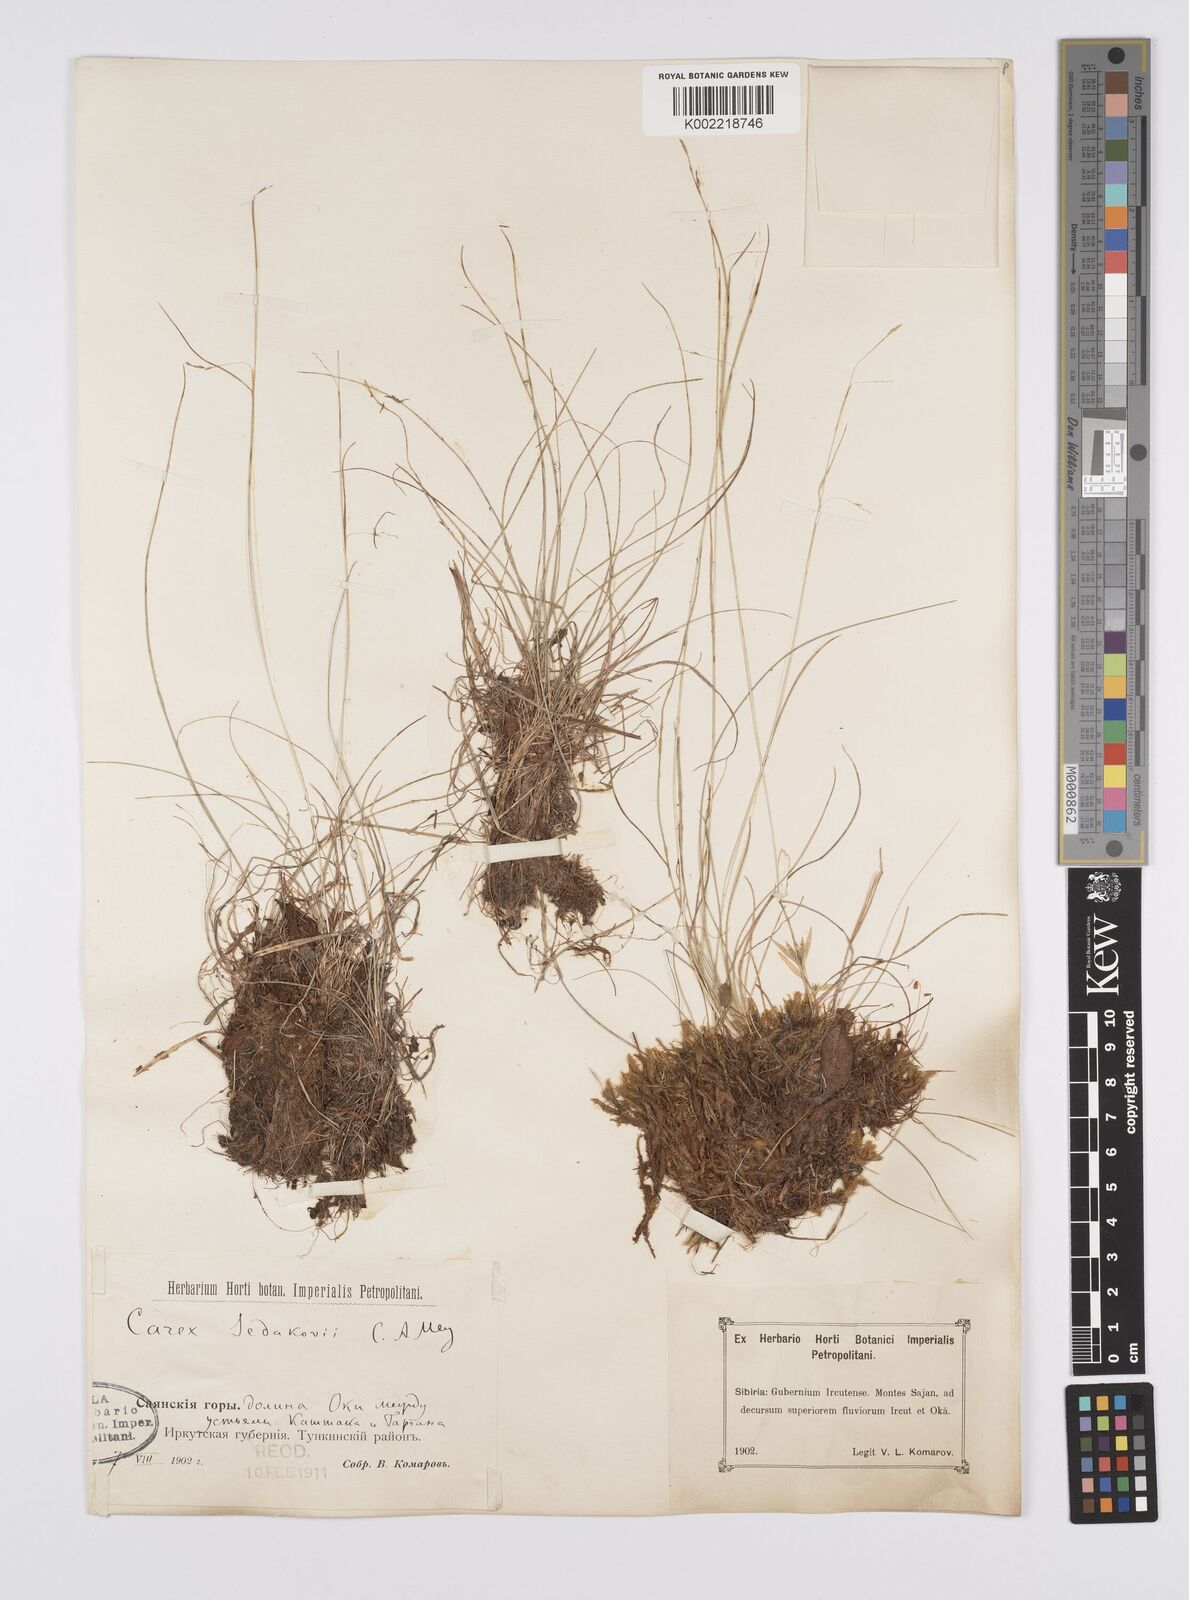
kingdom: Plantae
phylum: Tracheophyta
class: Liliopsida
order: Poales
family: Cyperaceae
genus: Carex
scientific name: Carex sedakowii
